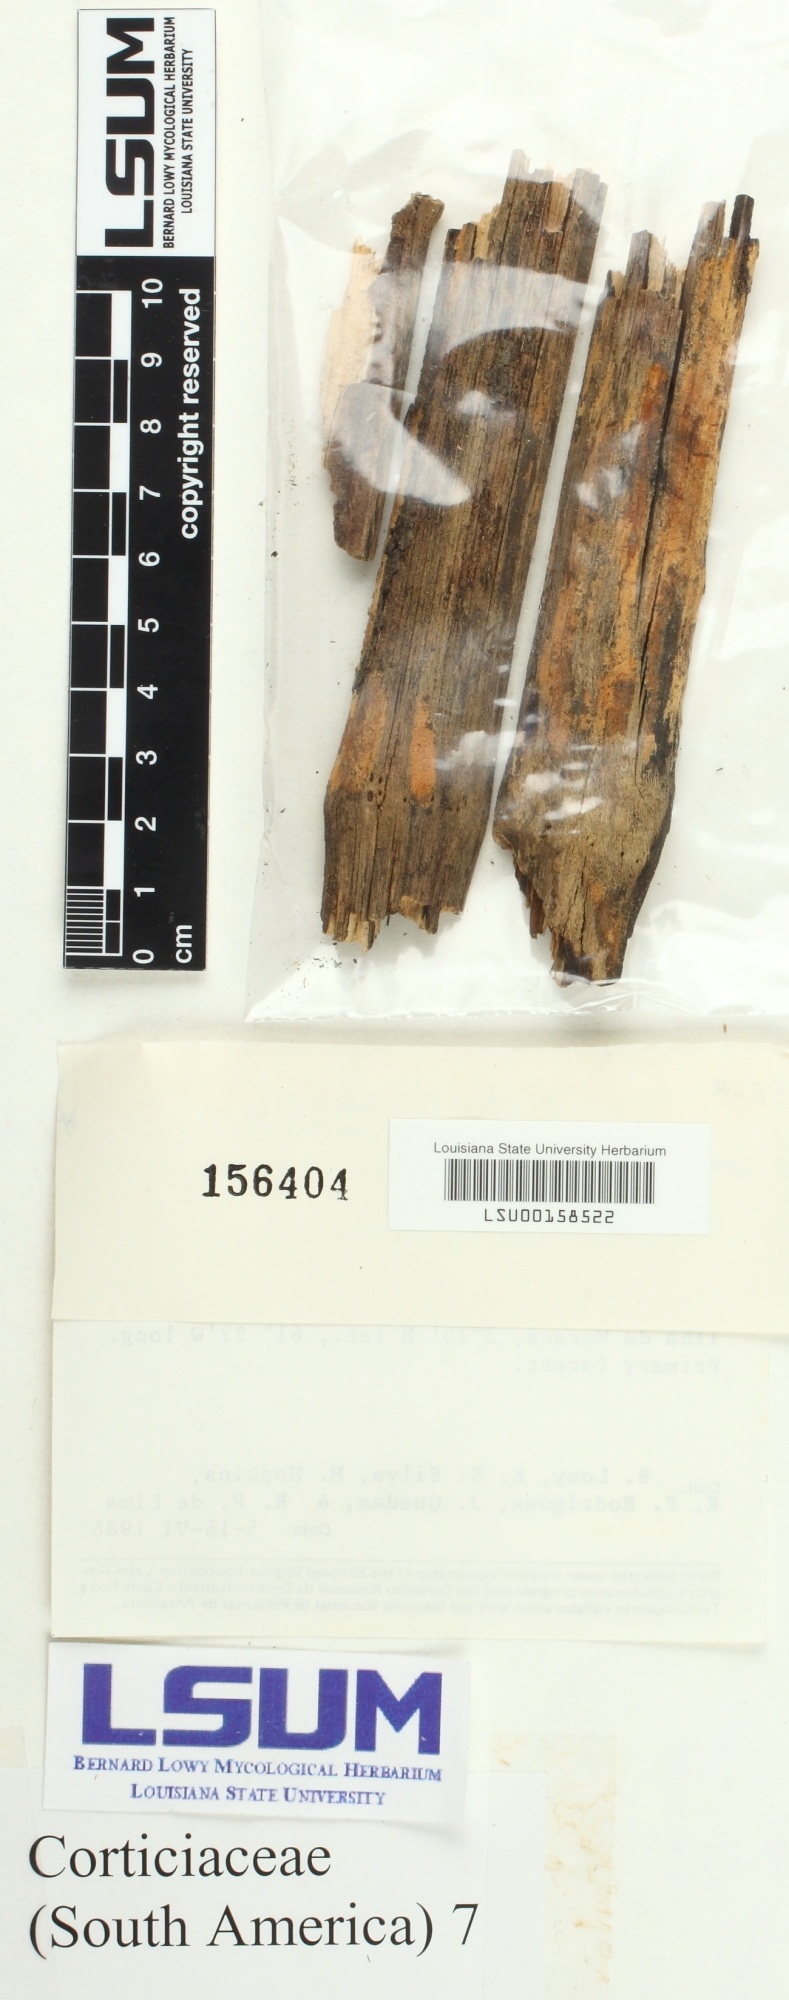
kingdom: Fungi
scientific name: Fungi
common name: Fungi
